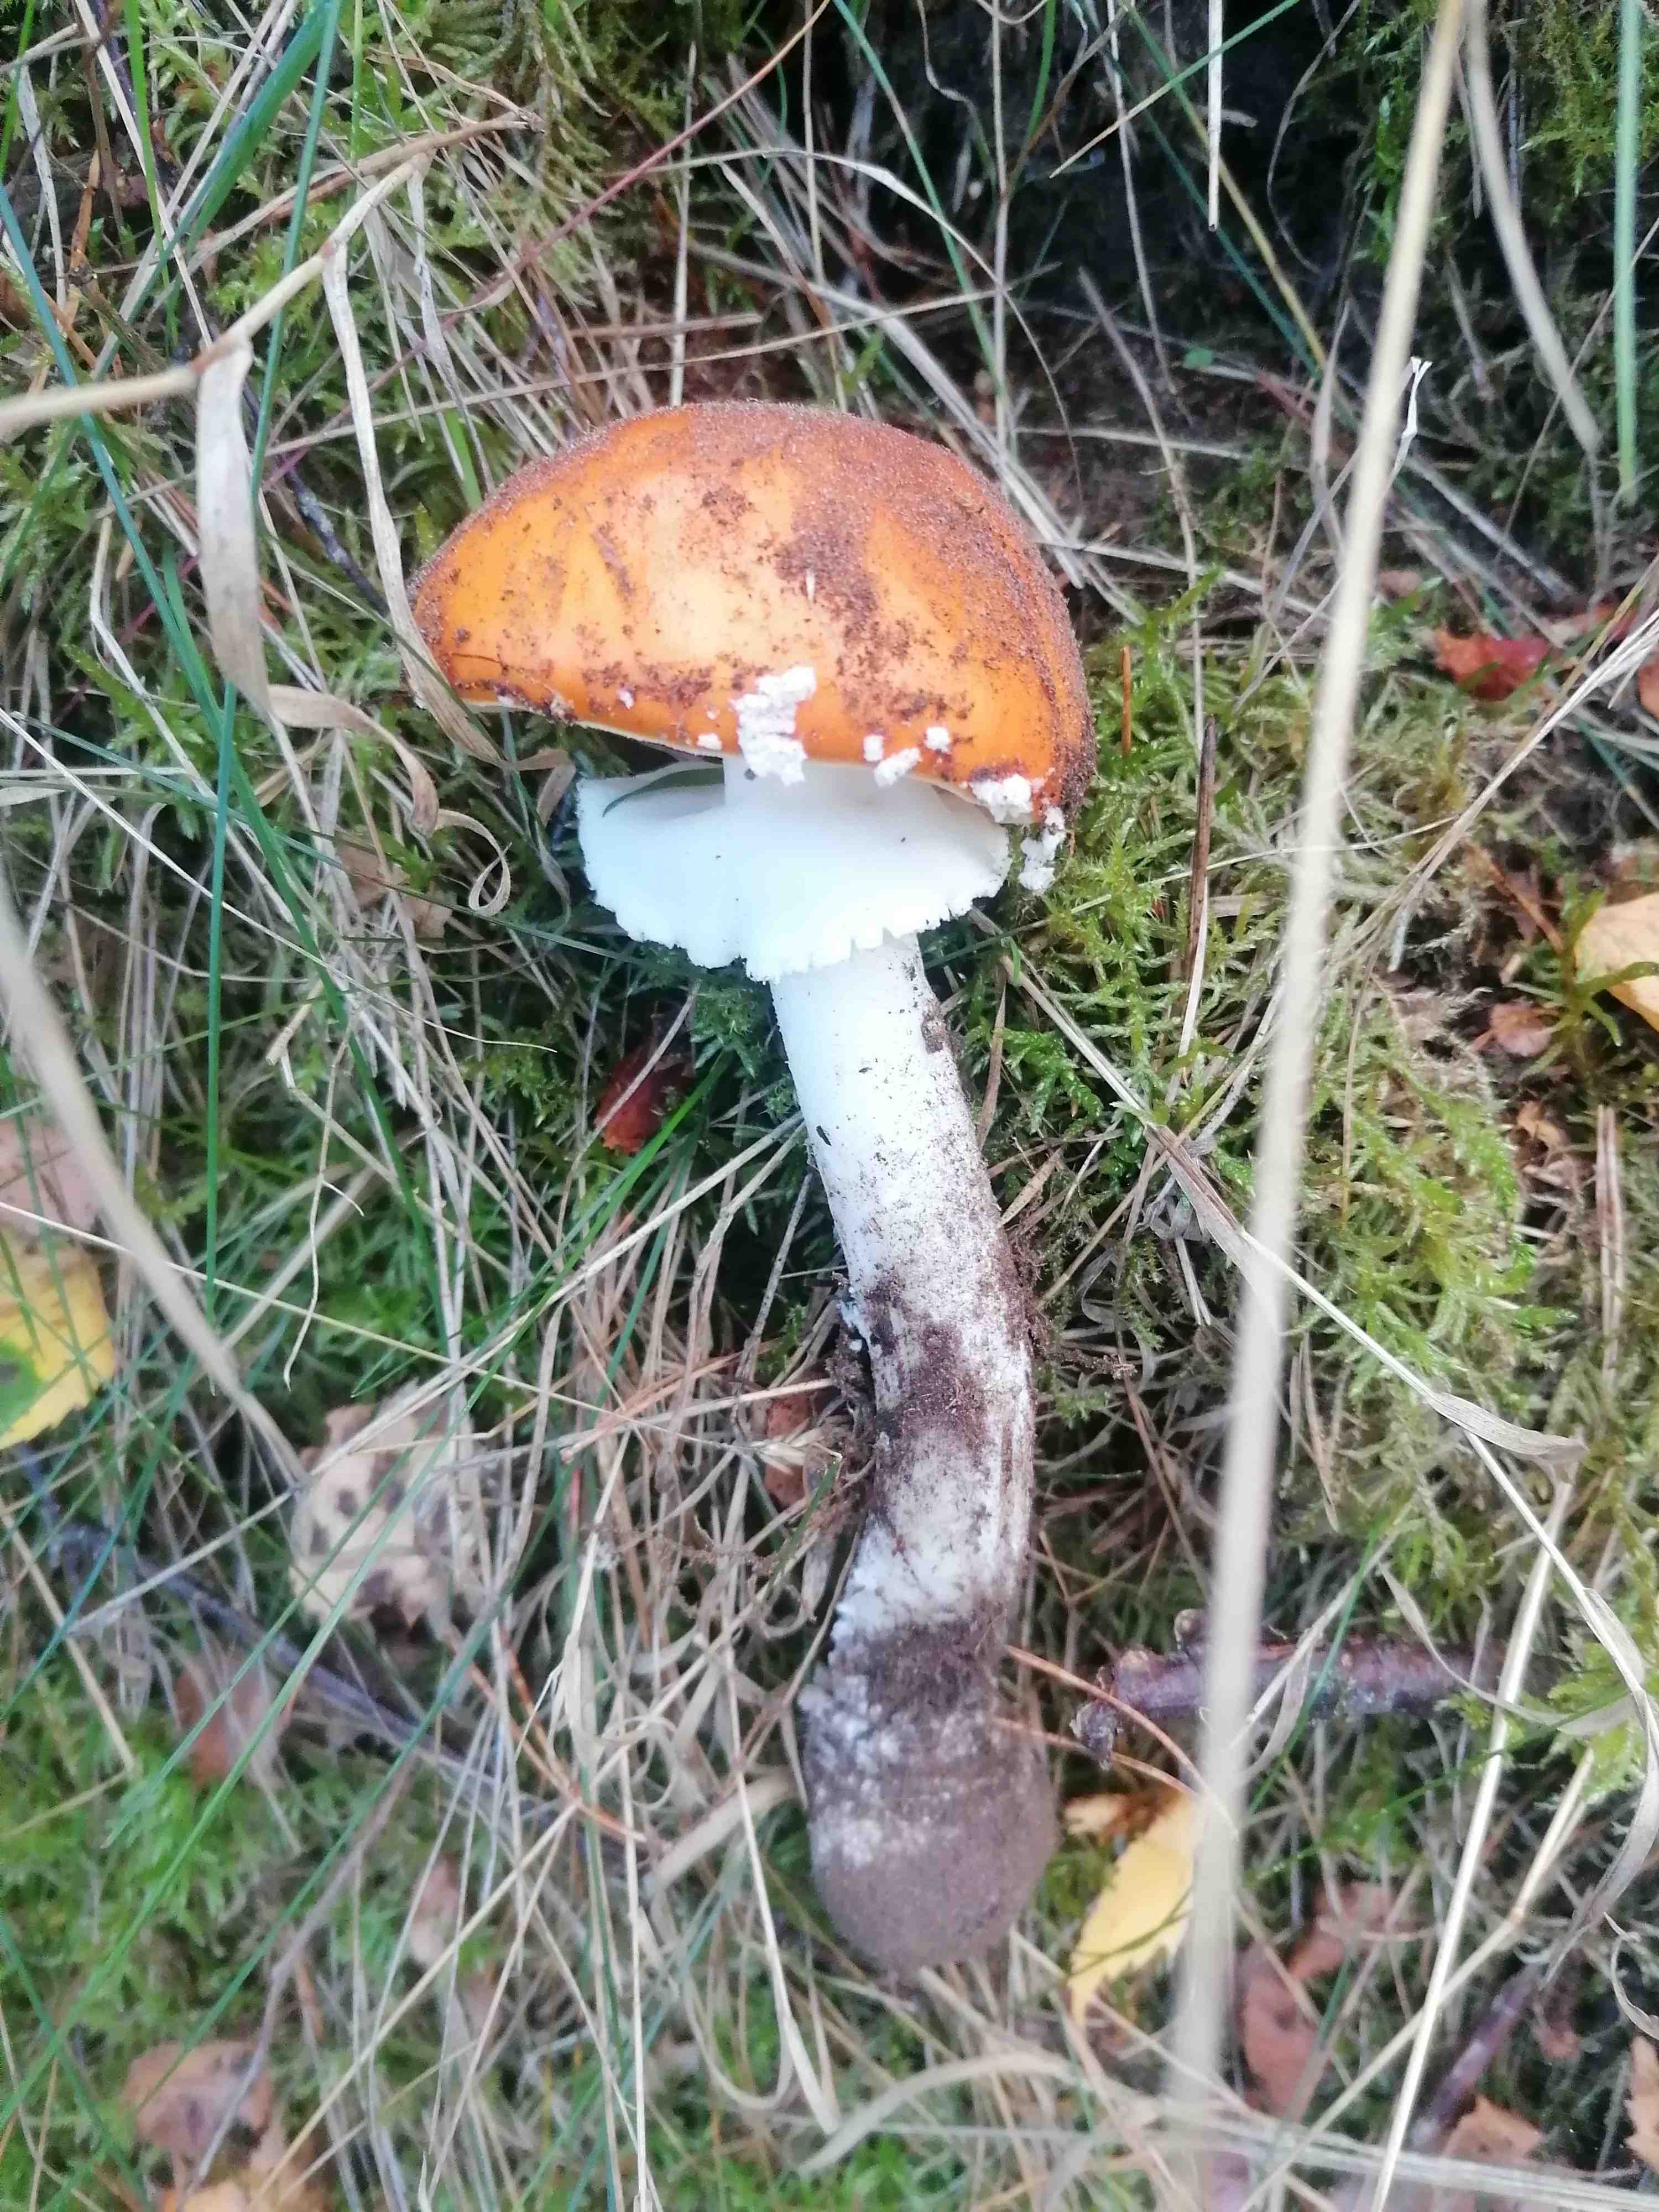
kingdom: Fungi
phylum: Basidiomycota
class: Agaricomycetes
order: Agaricales
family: Amanitaceae
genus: Amanita
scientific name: Amanita muscaria
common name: rød fluesvamp
